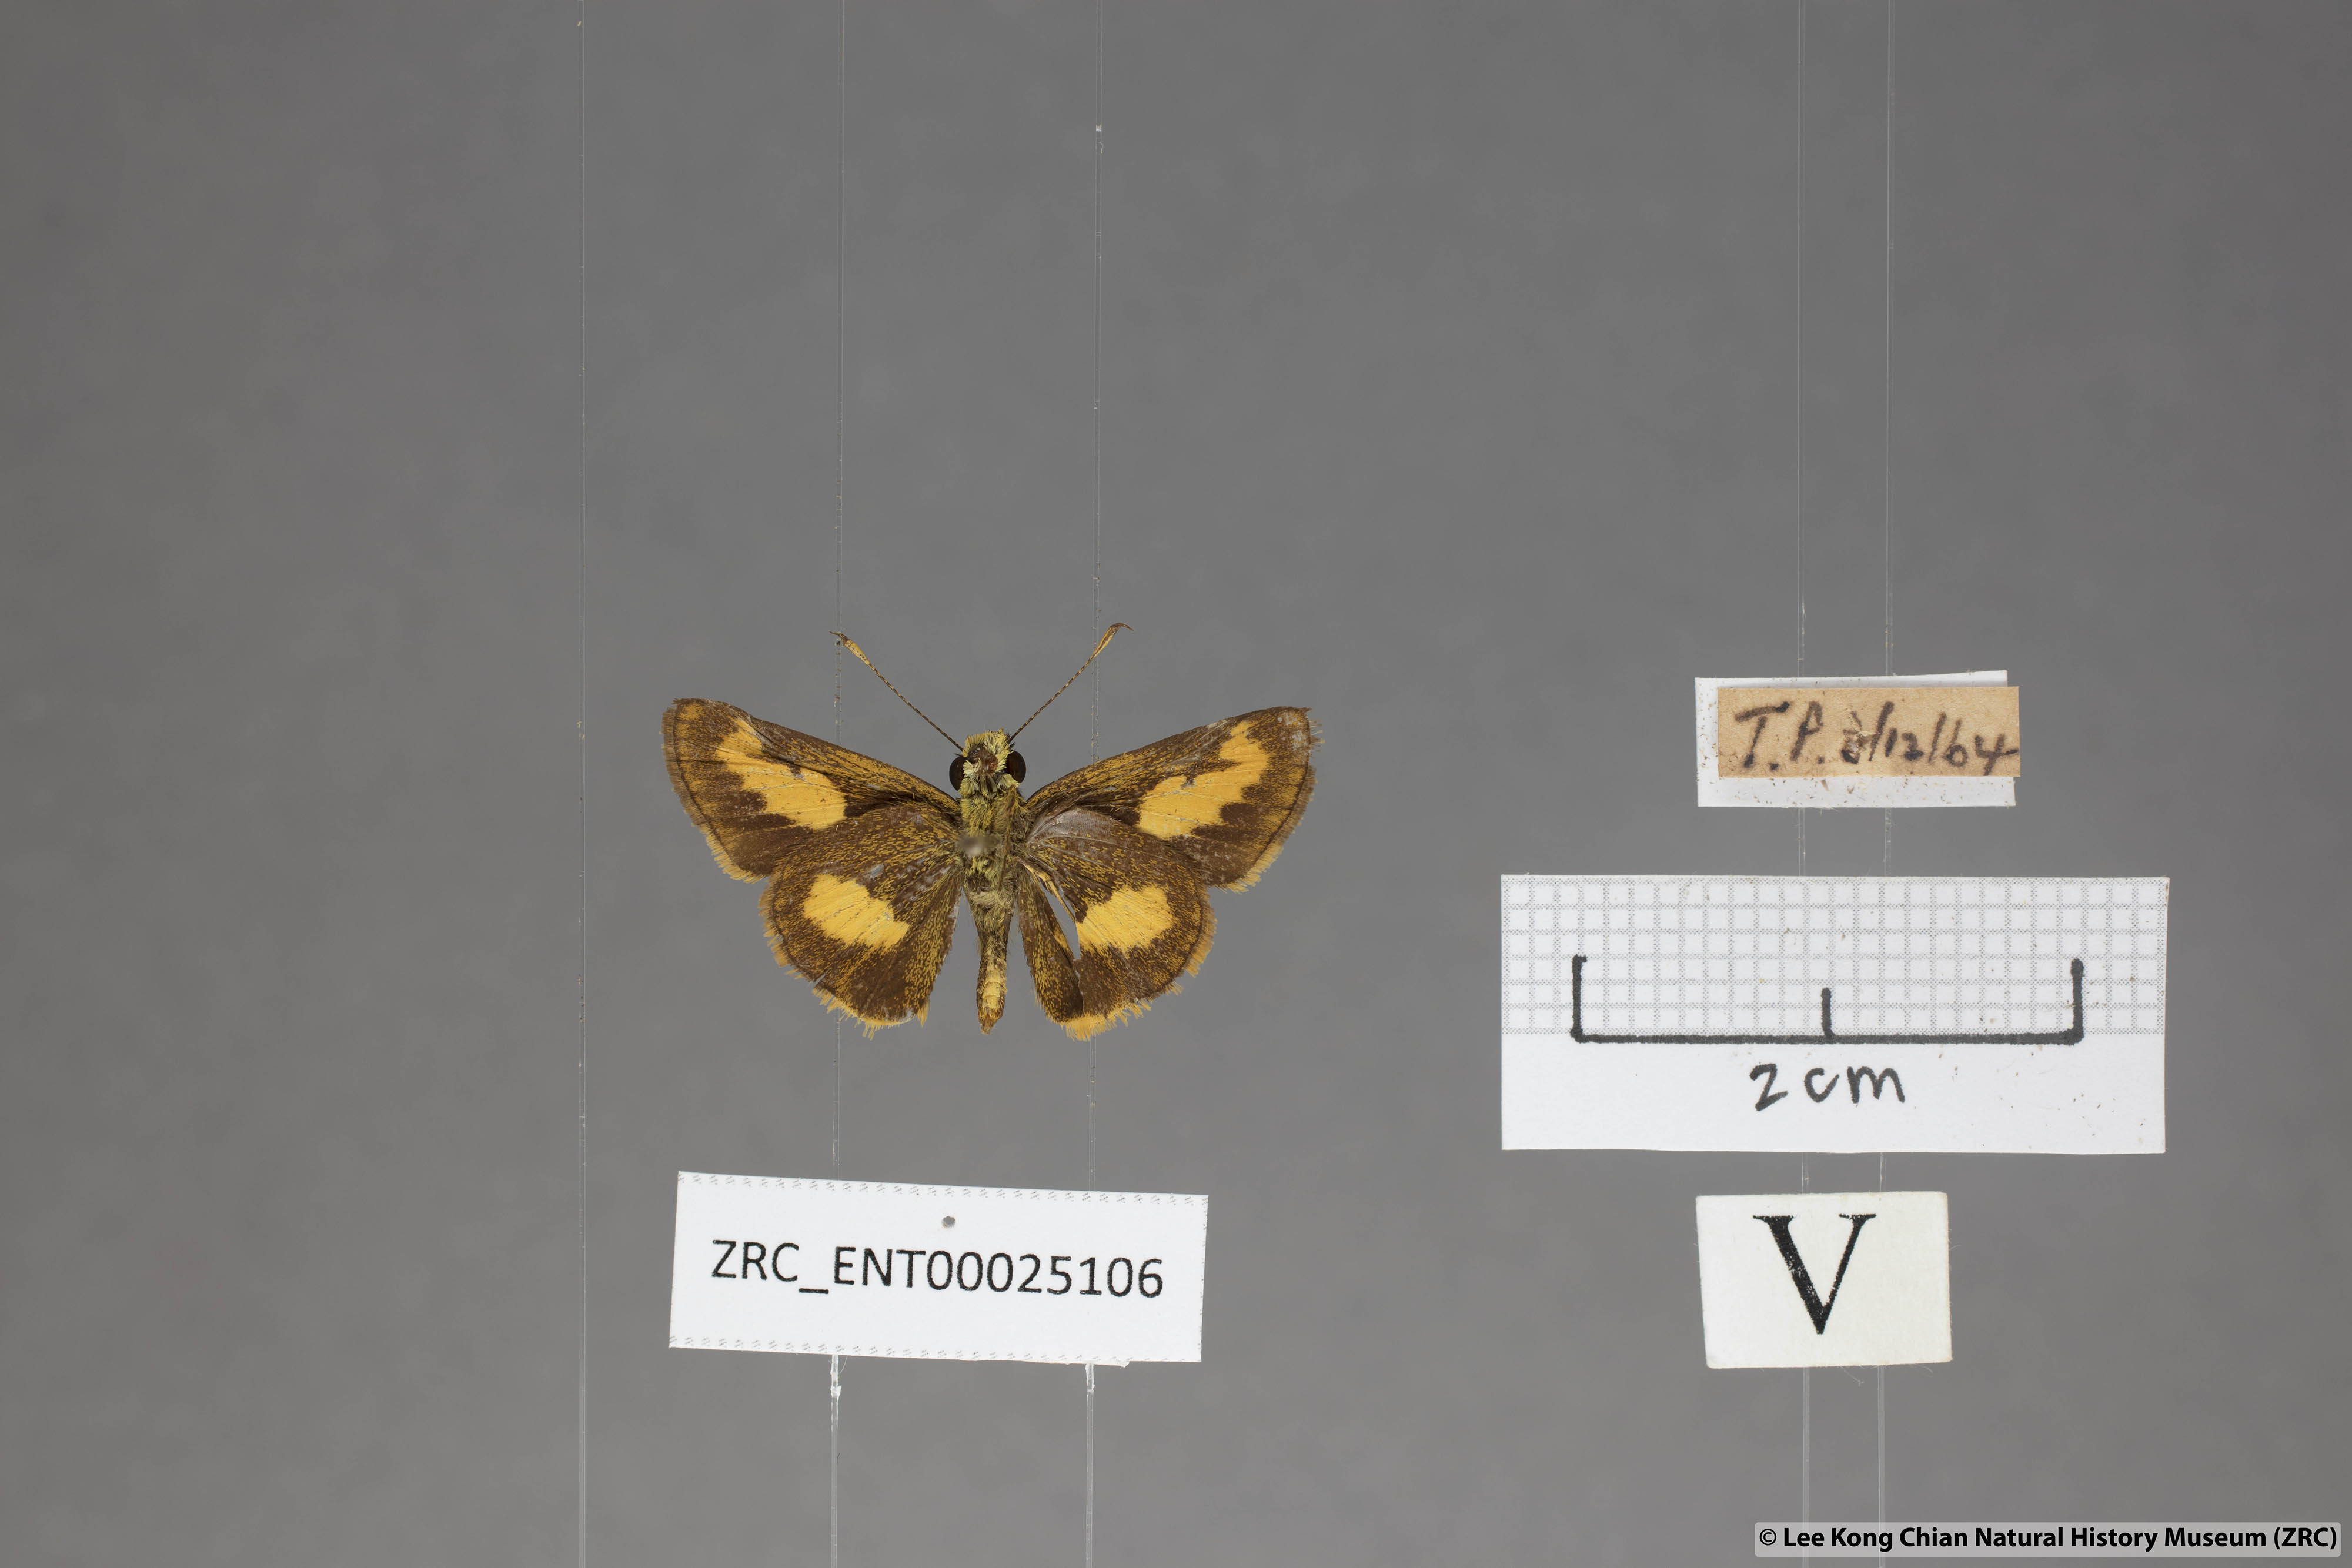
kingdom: Animalia
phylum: Arthropoda
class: Insecta
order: Lepidoptera
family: Hesperiidae
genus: Oriens
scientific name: Oriens paragola
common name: Malay dartlet
